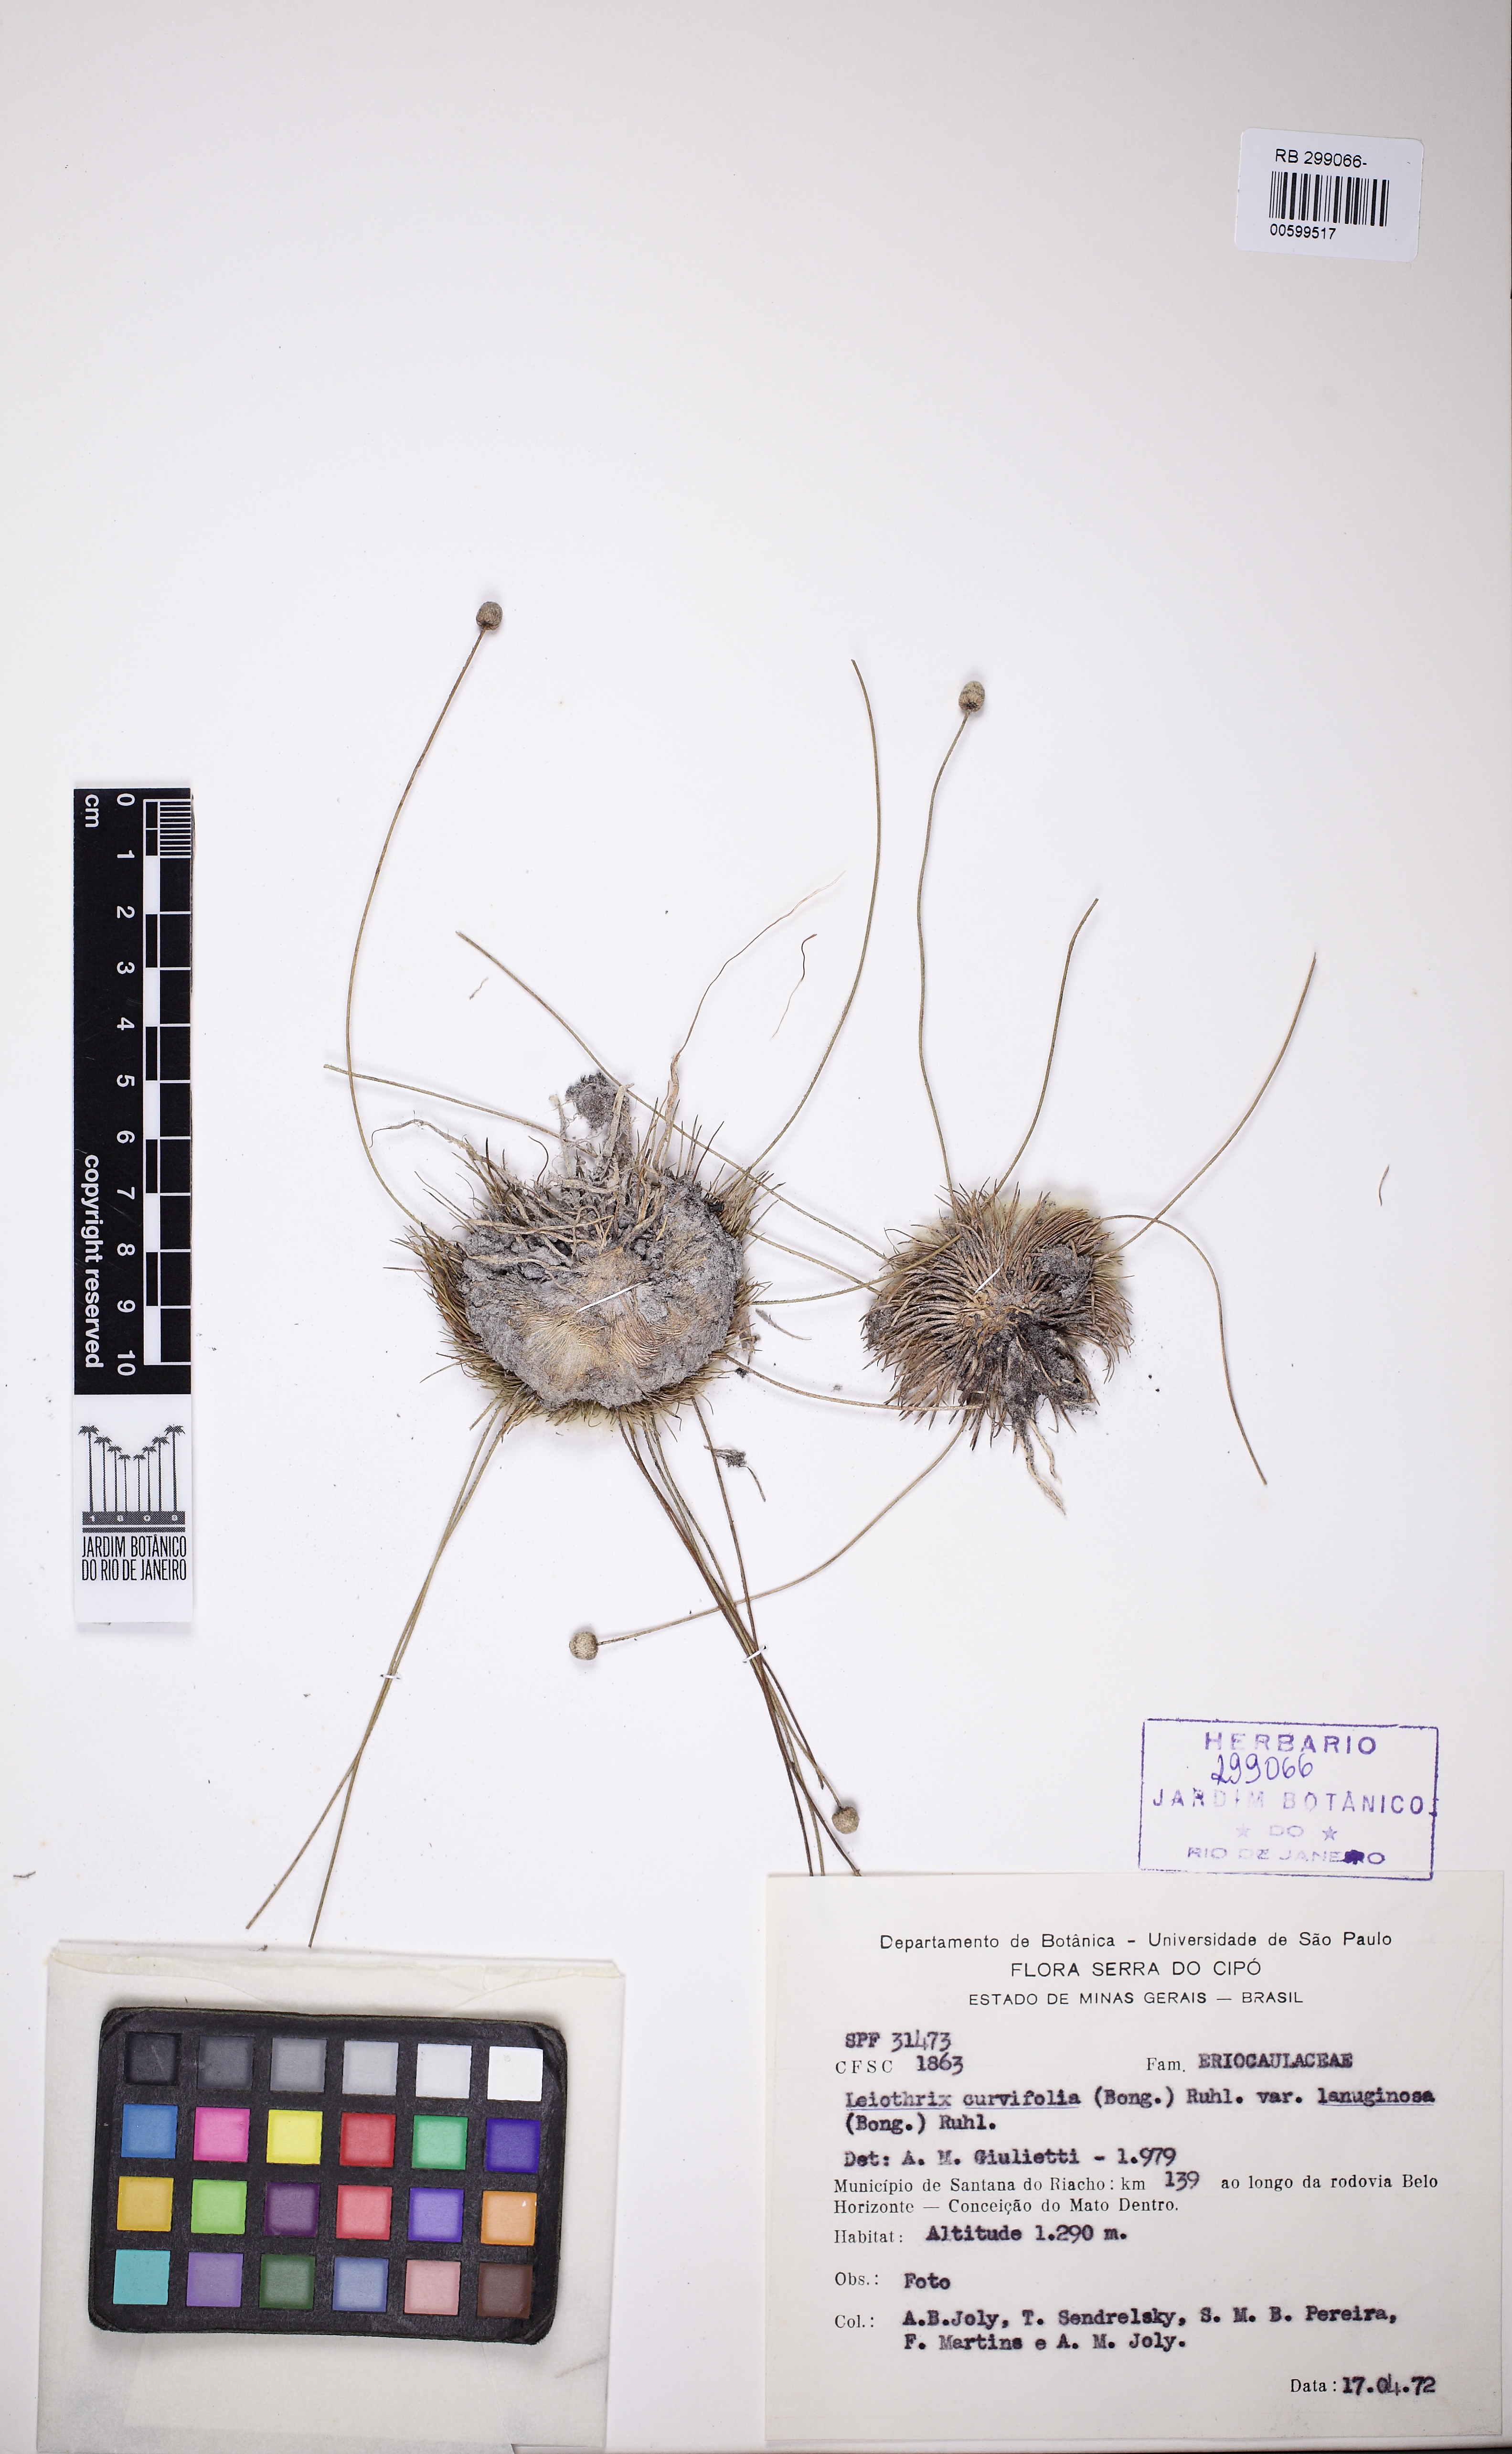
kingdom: Plantae
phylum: Tracheophyta
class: Liliopsida
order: Poales
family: Eriocaulaceae
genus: Leiothrix
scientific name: Leiothrix curvifolia
